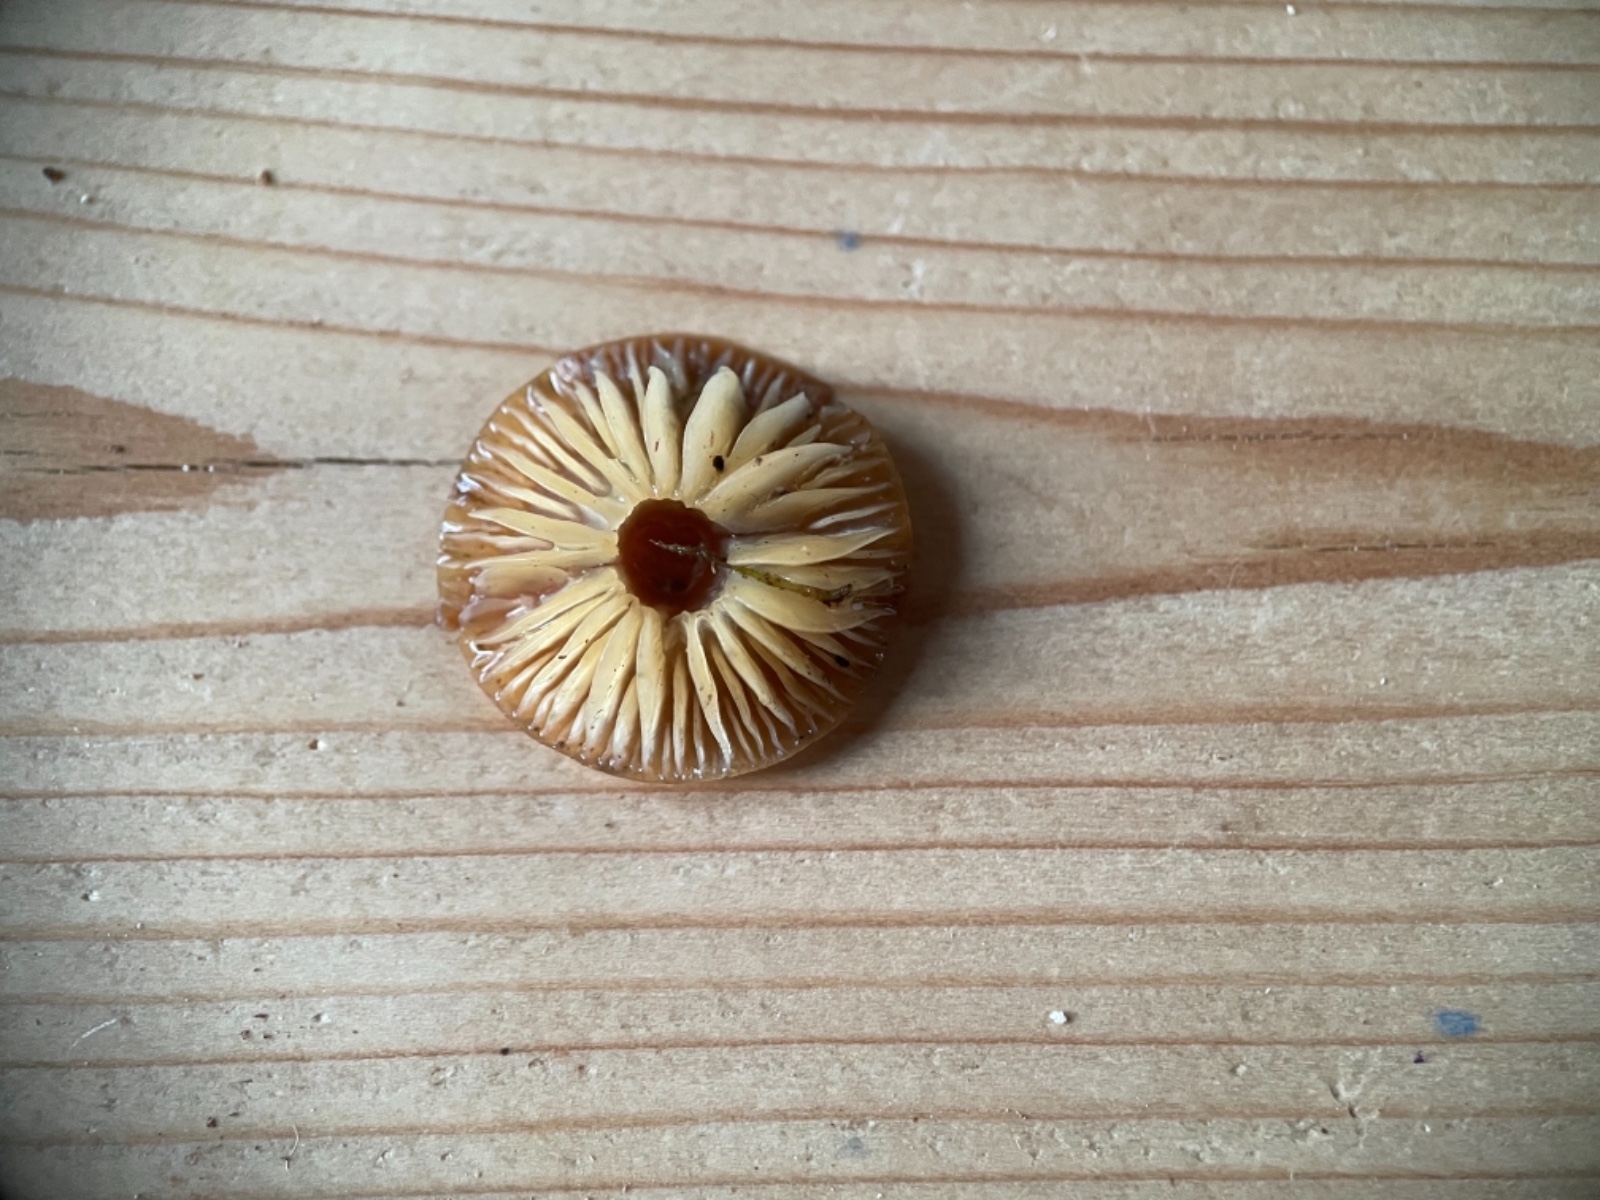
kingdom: Fungi
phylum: Basidiomycota
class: Agaricomycetes
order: Agaricales
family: Physalacriaceae
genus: Flammulina
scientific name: Flammulina
